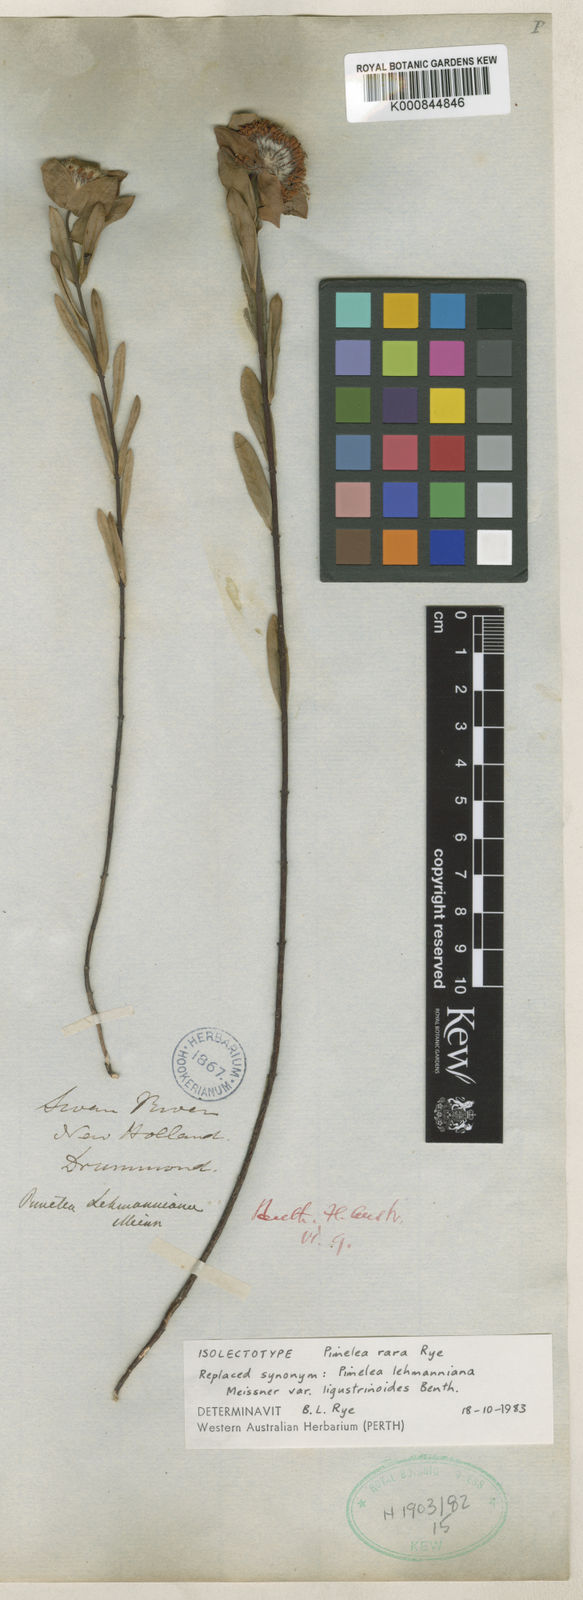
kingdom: Plantae
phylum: Tracheophyta
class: Magnoliopsida
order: Malvales
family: Thymelaeaceae
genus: Pimelea
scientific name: Pimelea rara
